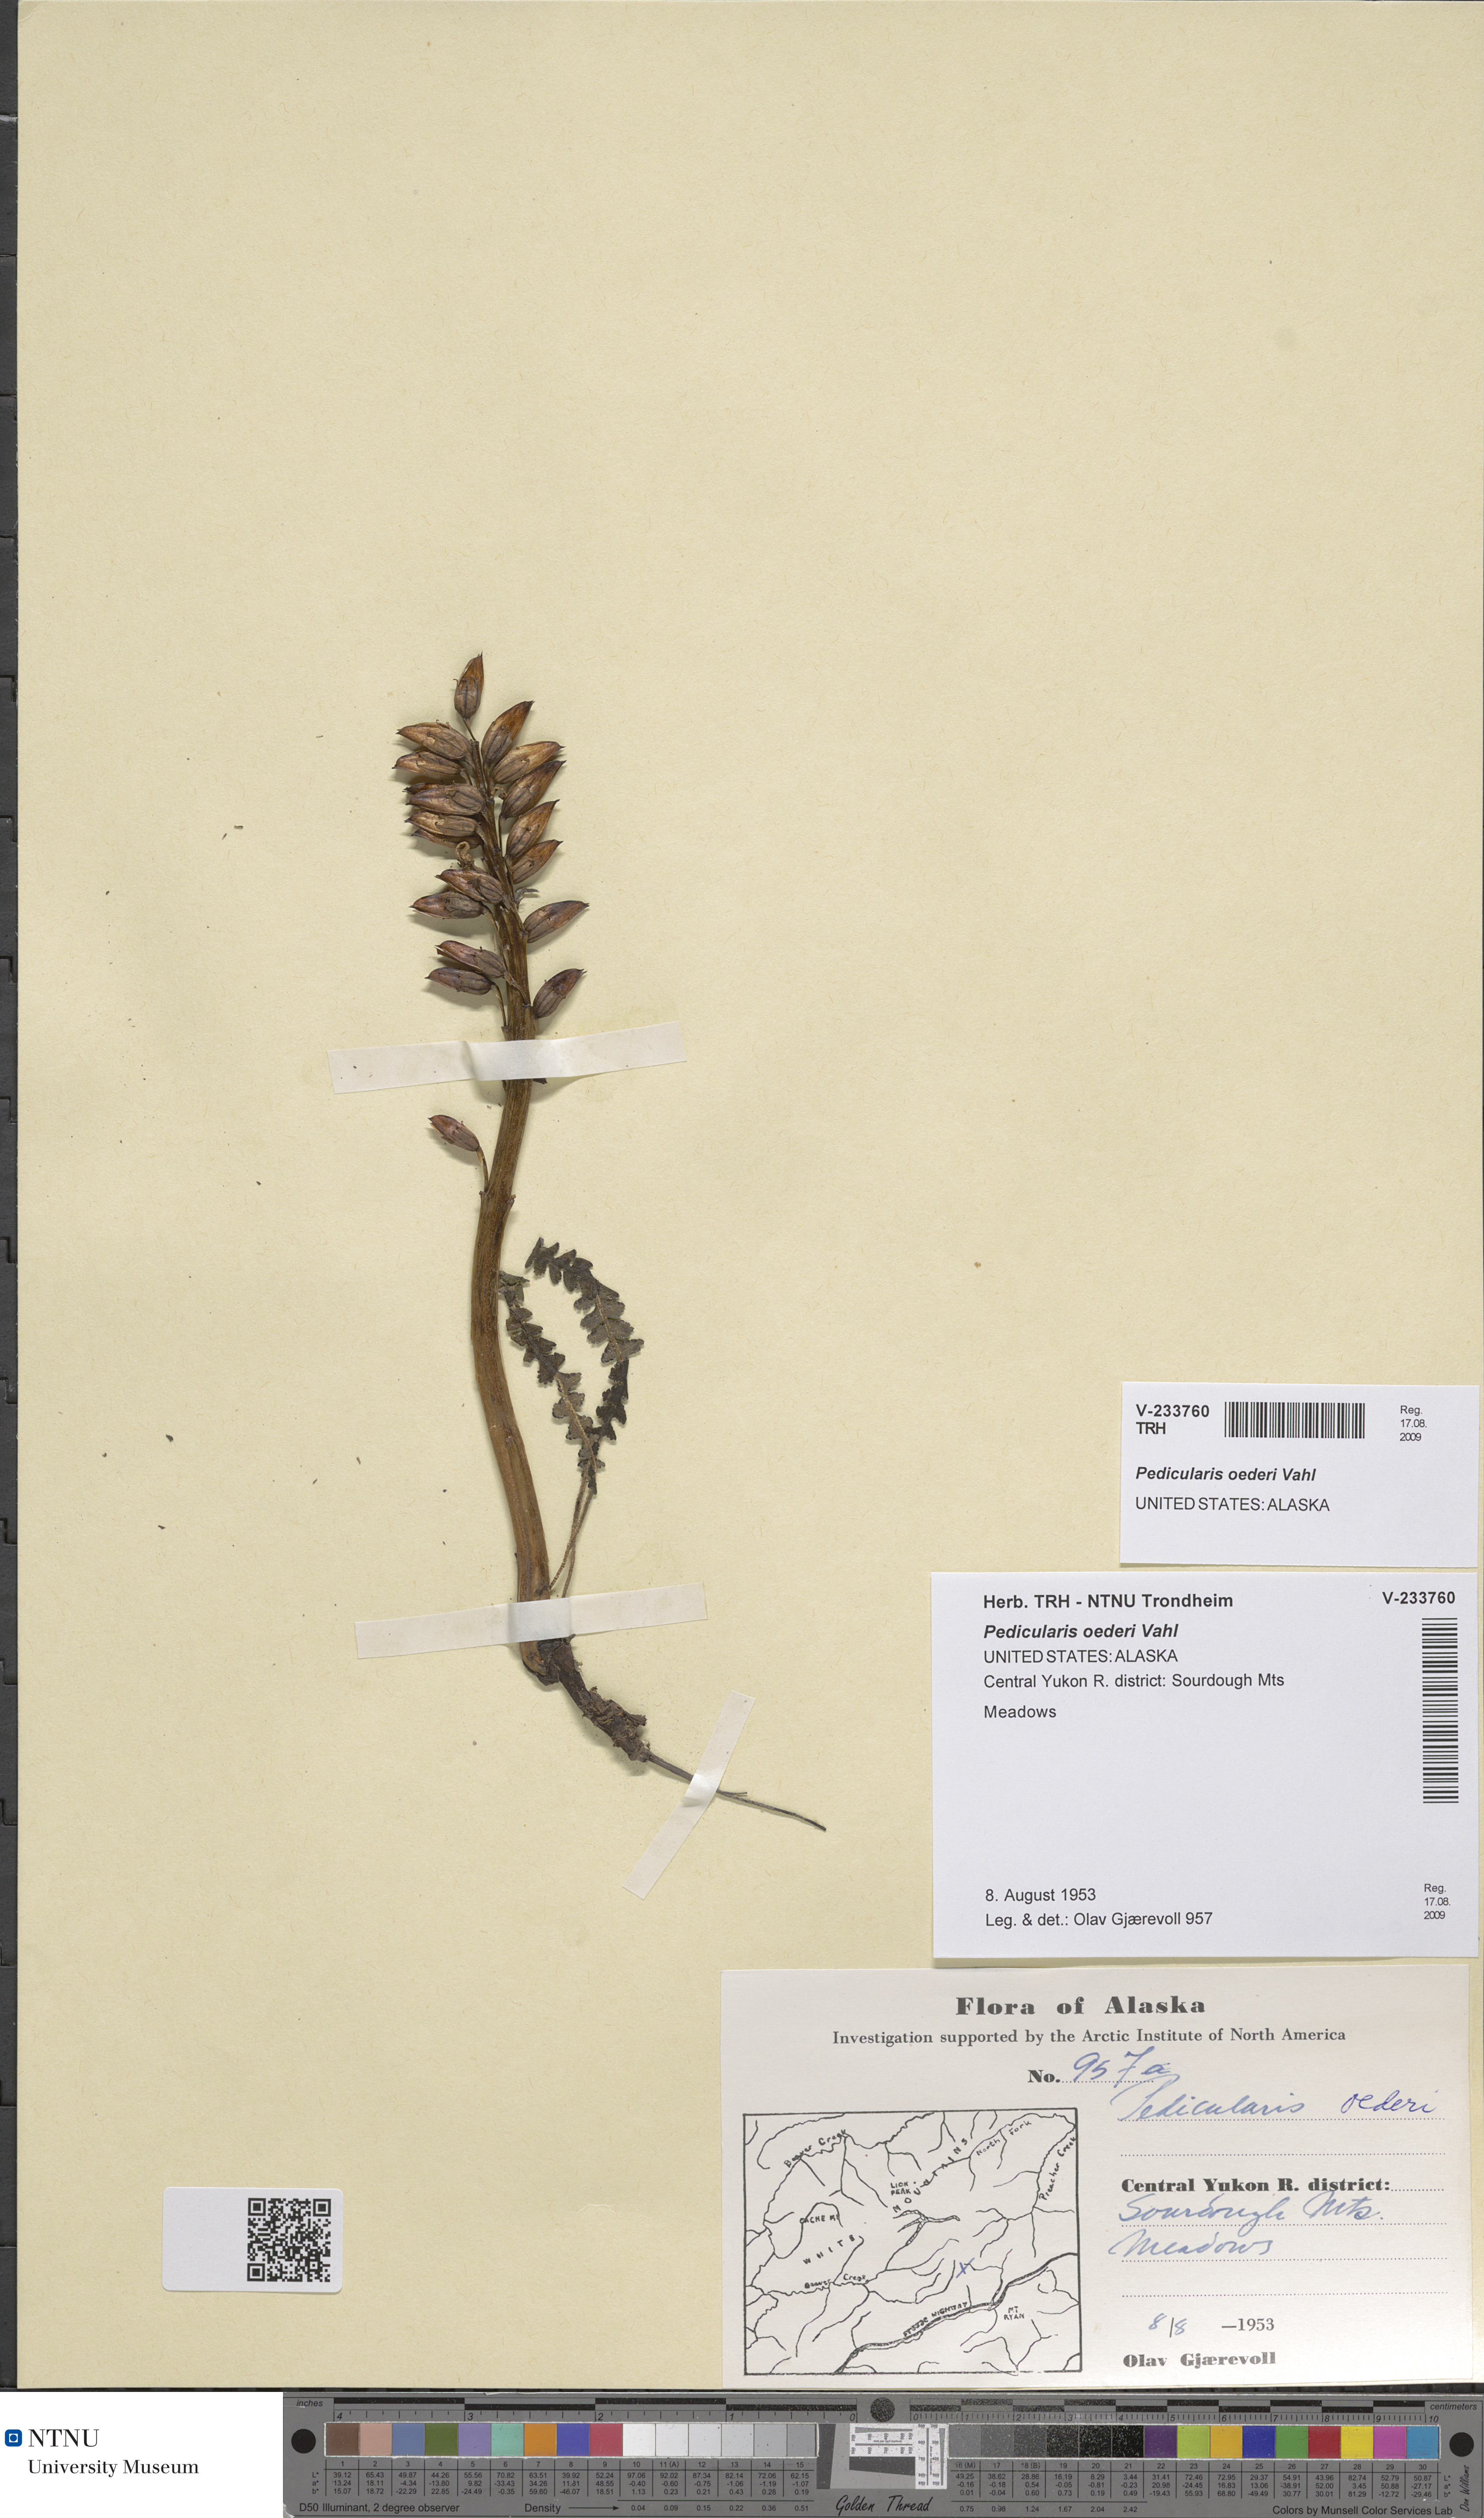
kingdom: Plantae
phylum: Tracheophyta
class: Magnoliopsida
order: Lamiales
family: Orobanchaceae
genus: Pedicularis
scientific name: Pedicularis oederi
